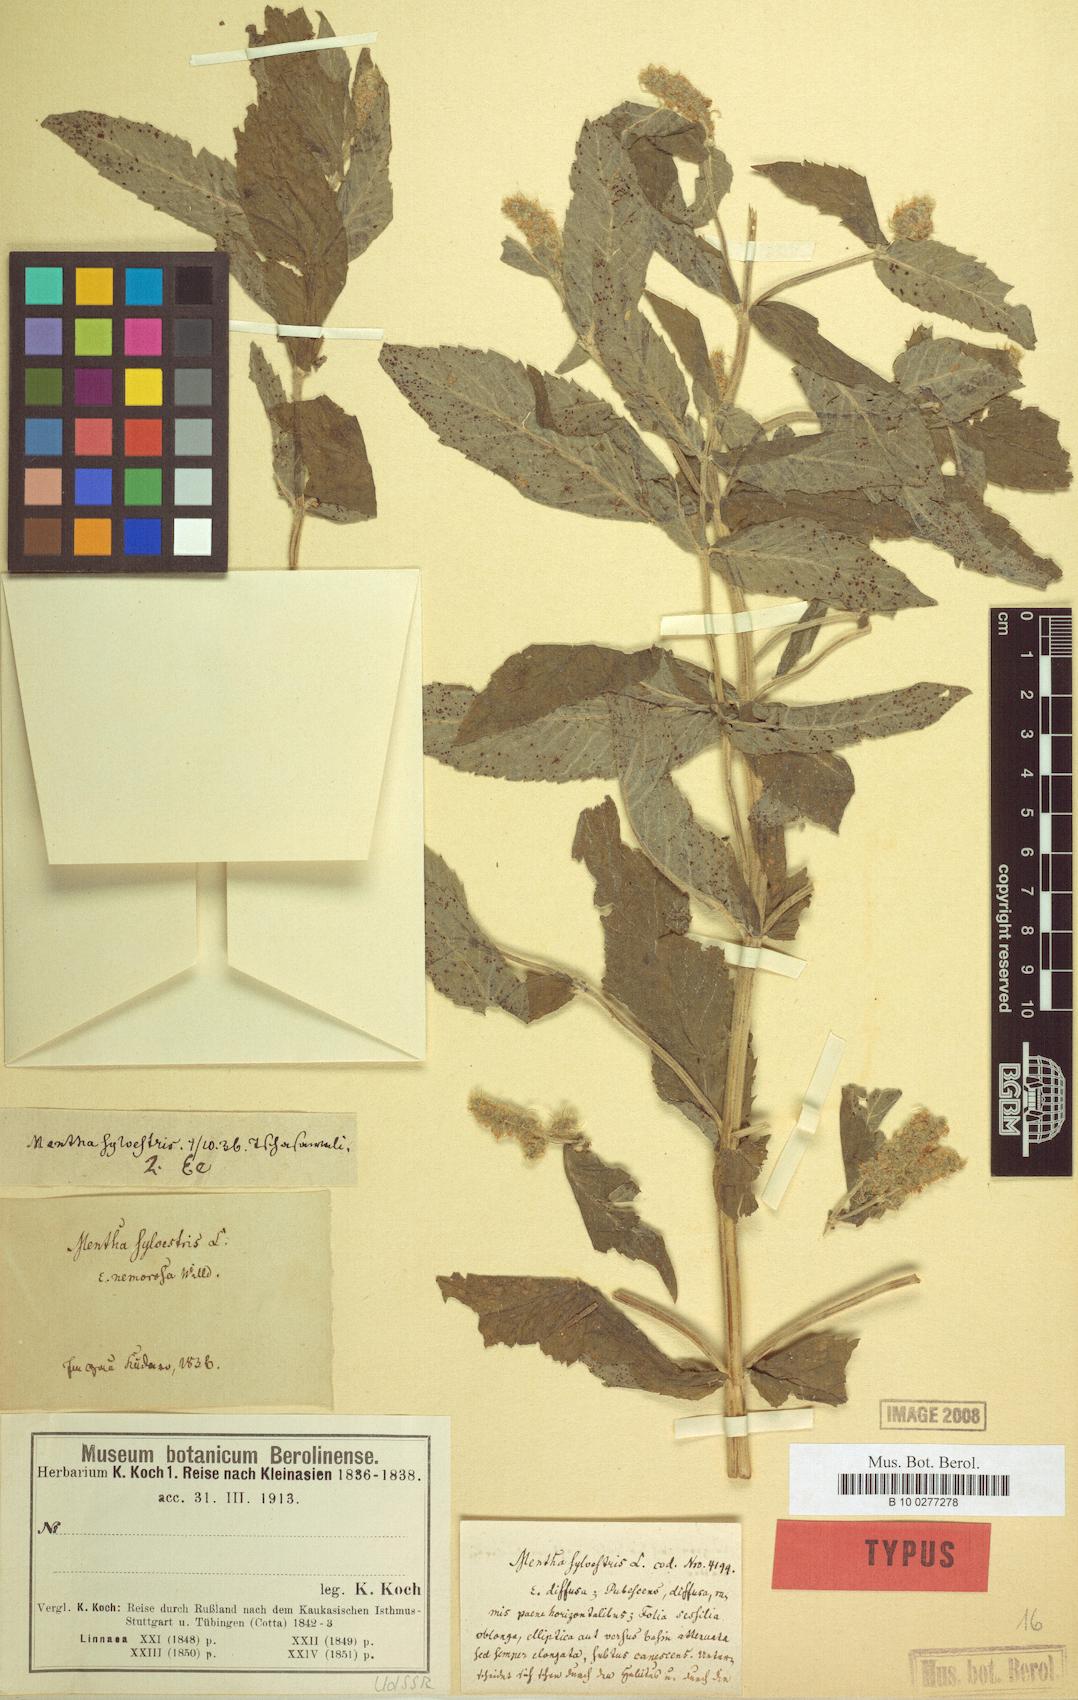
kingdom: Plantae
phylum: Tracheophyta
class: Magnoliopsida
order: Lamiales
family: Lamiaceae
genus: Mentha
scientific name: Mentha longifolia
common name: Horse mint
